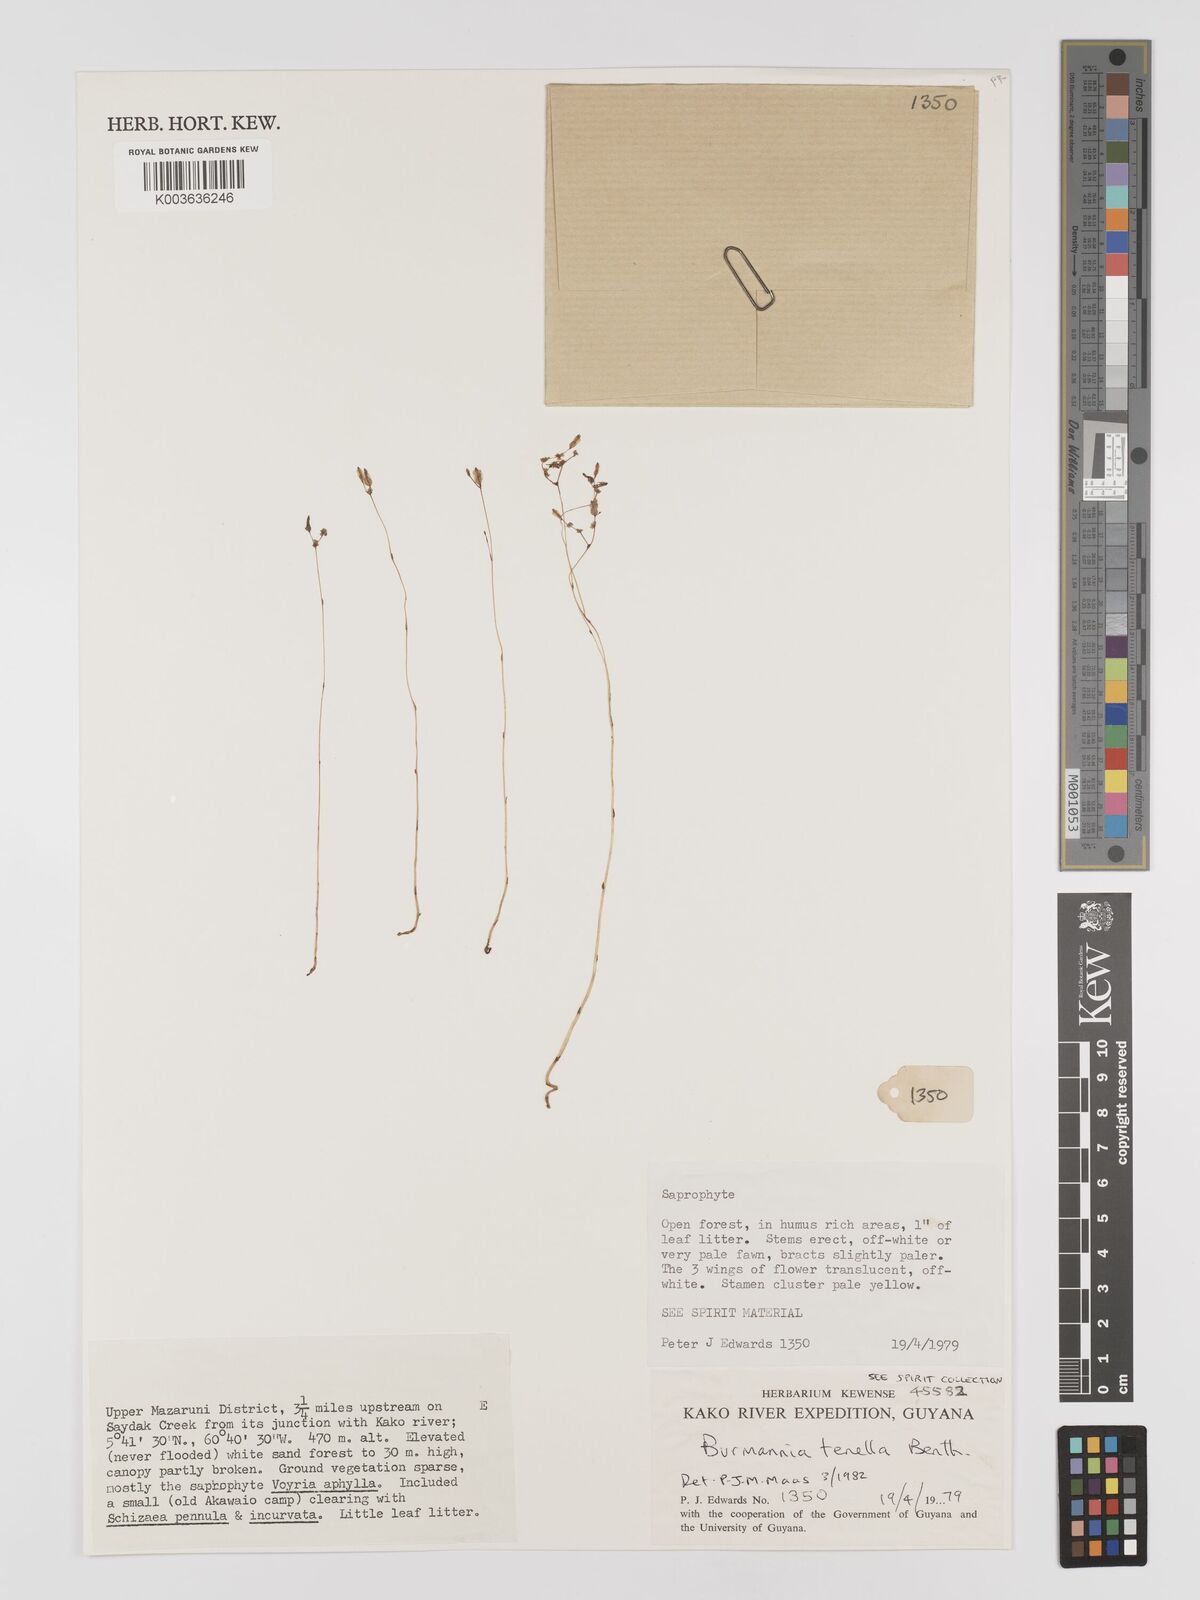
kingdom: Plantae
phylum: Tracheophyta
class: Liliopsida
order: Dioscoreales
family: Burmanniaceae
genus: Burmannia
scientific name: Burmannia tenella
